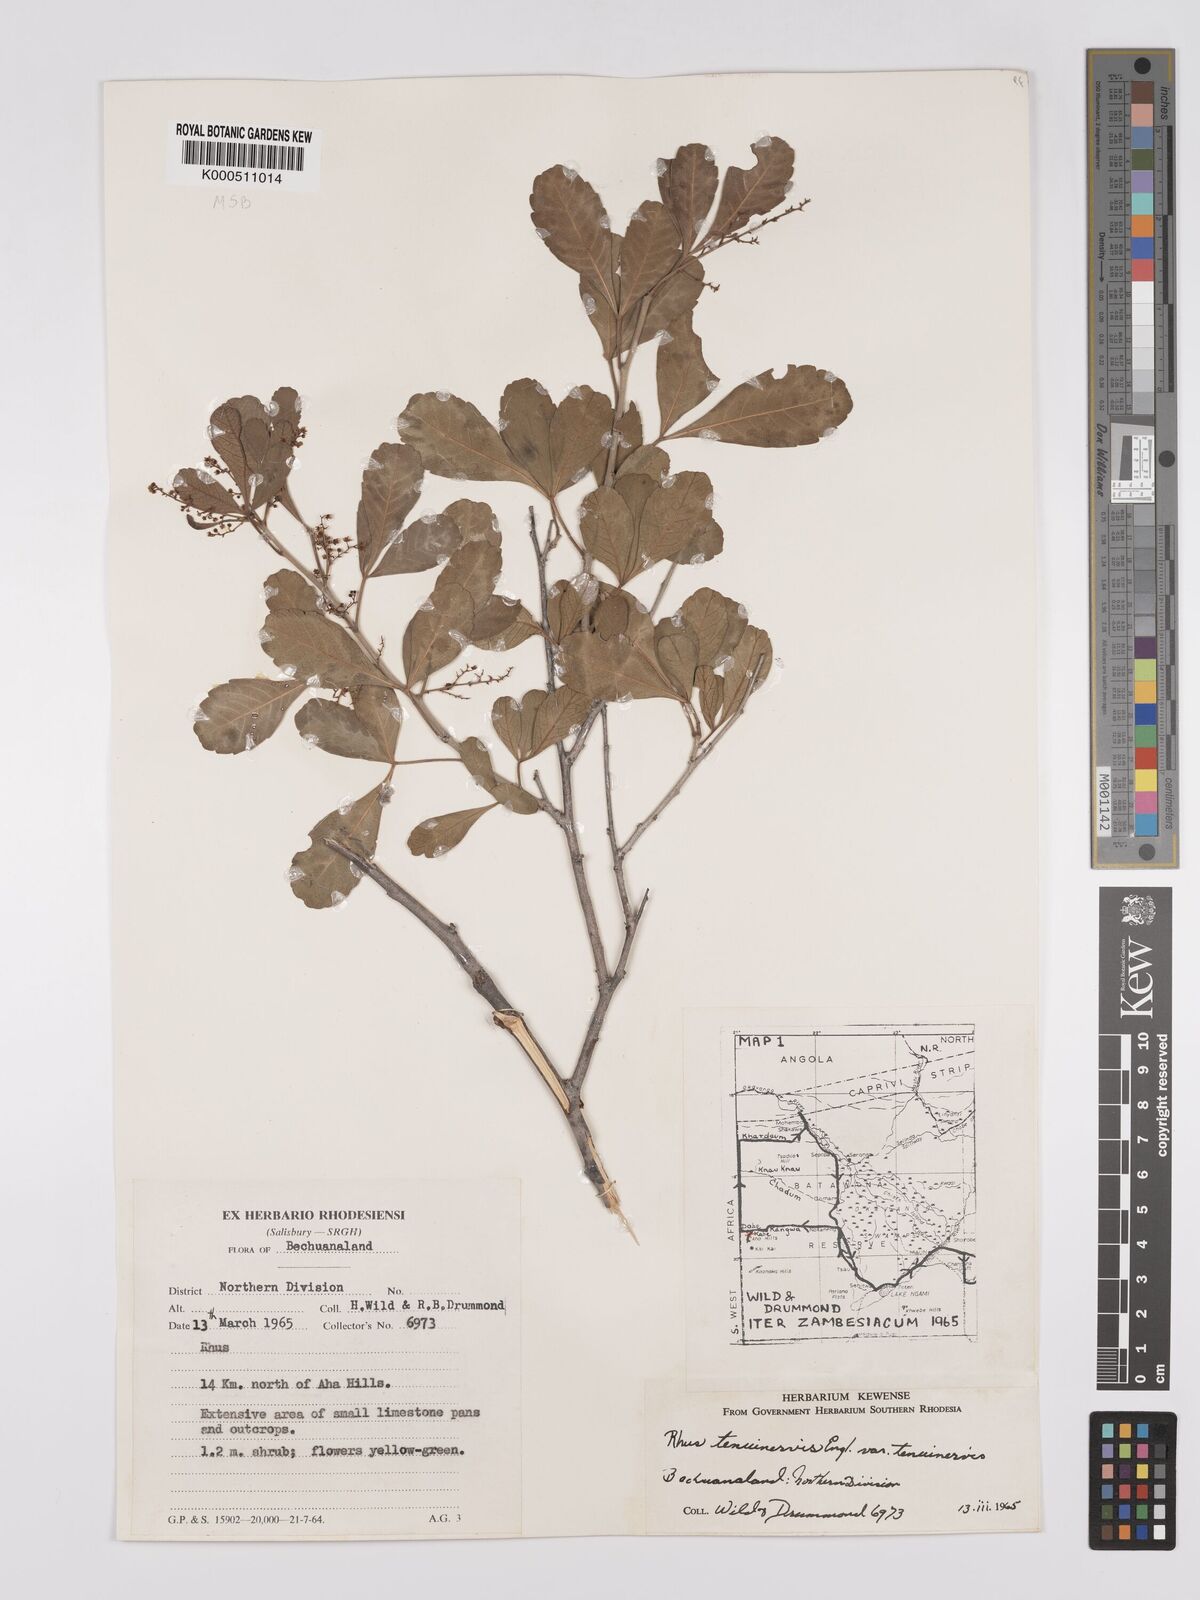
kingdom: Plantae
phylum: Tracheophyta
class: Magnoliopsida
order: Sapindales
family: Anacardiaceae
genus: Searsia
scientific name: Searsia tenuinervis
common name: Hyaena taaibos
